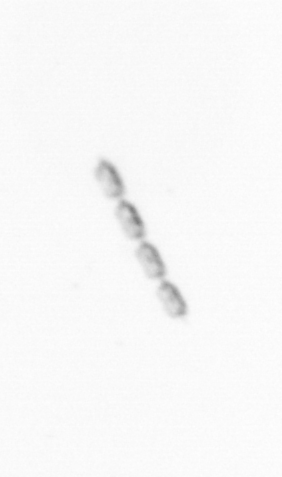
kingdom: Chromista
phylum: Ochrophyta
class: Bacillariophyceae
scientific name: Bacillariophyceae
